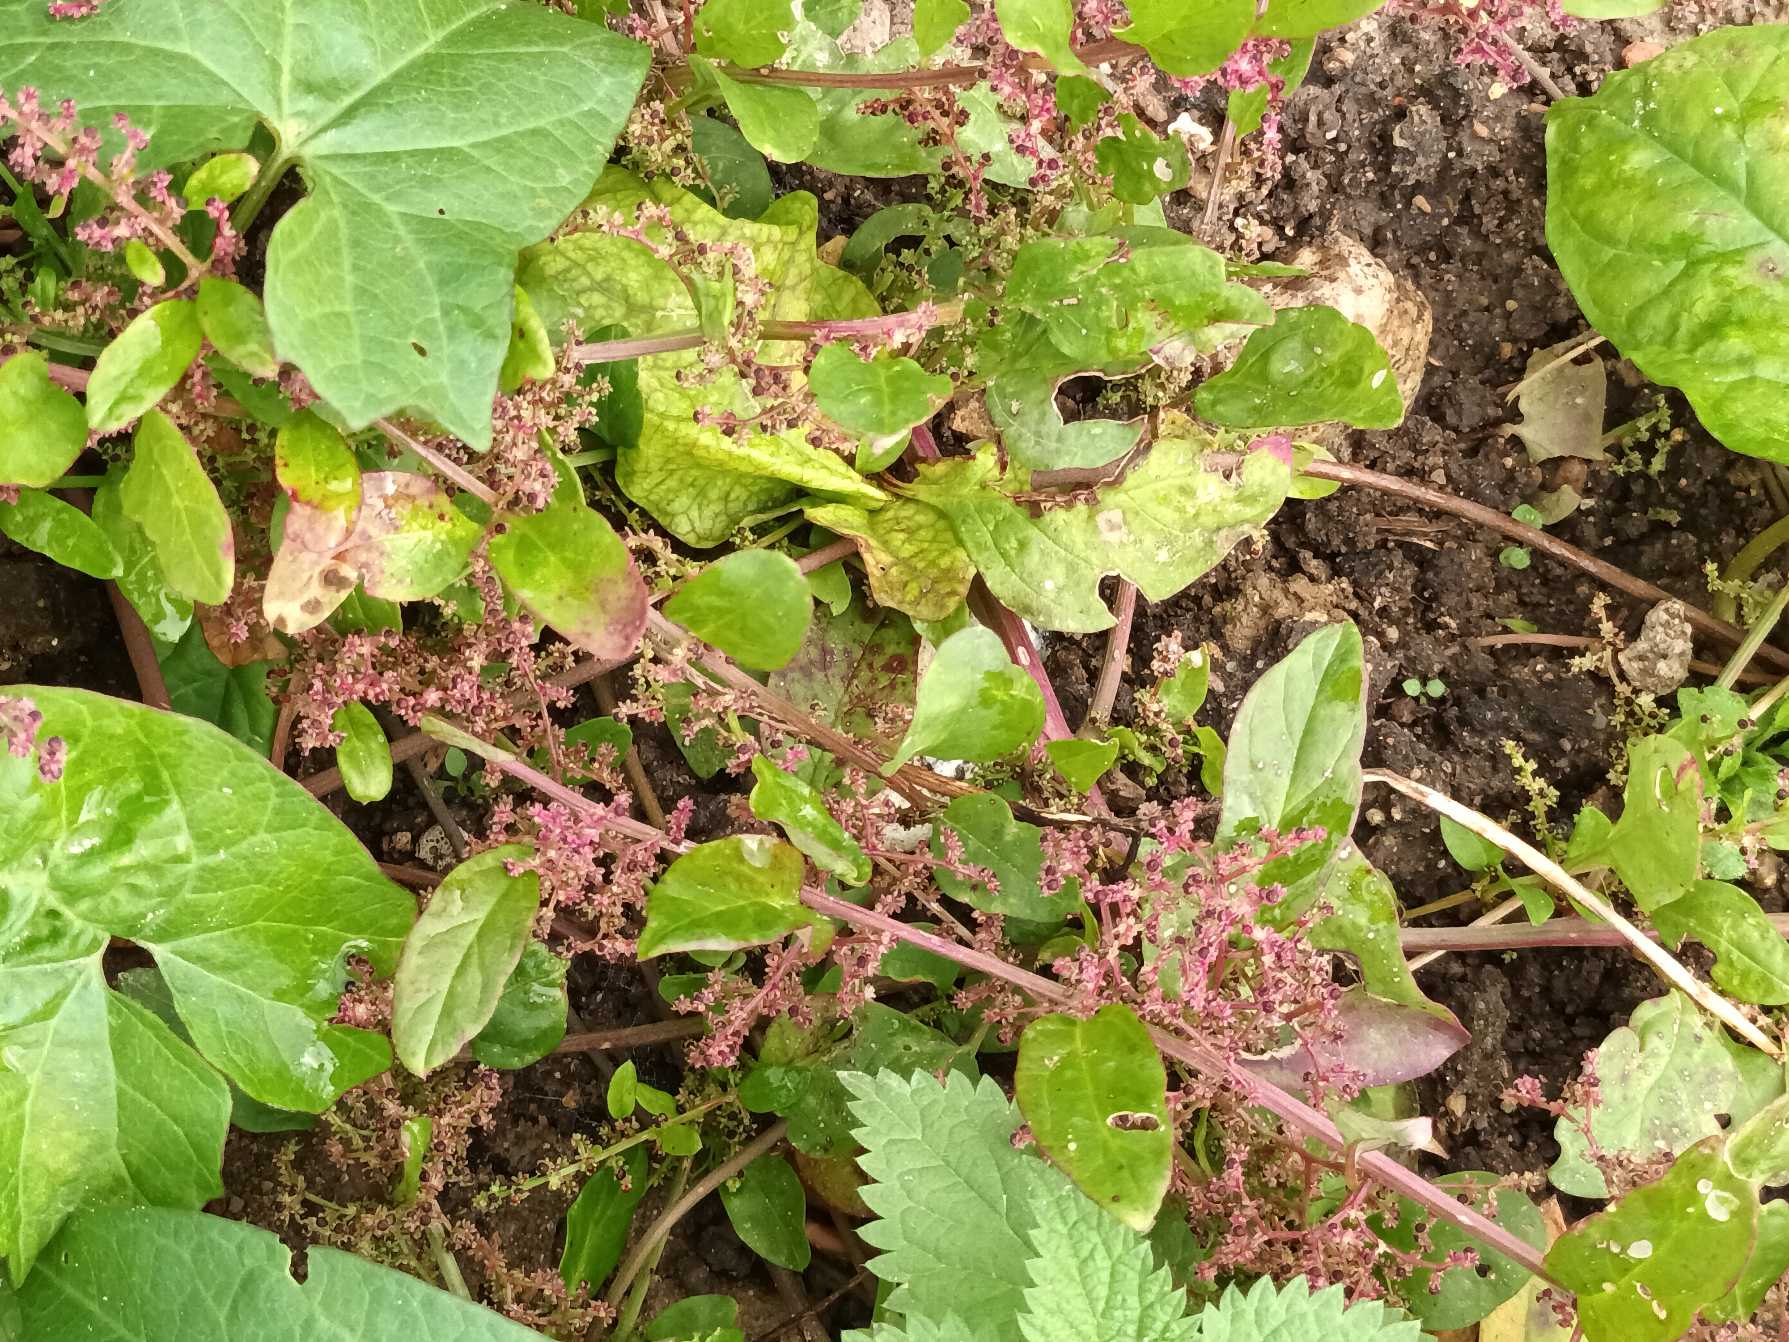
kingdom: Plantae
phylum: Tracheophyta
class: Magnoliopsida
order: Caryophyllales
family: Amaranthaceae
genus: Lipandra
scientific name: Lipandra polysperma
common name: Mangefrøet gåsefod
